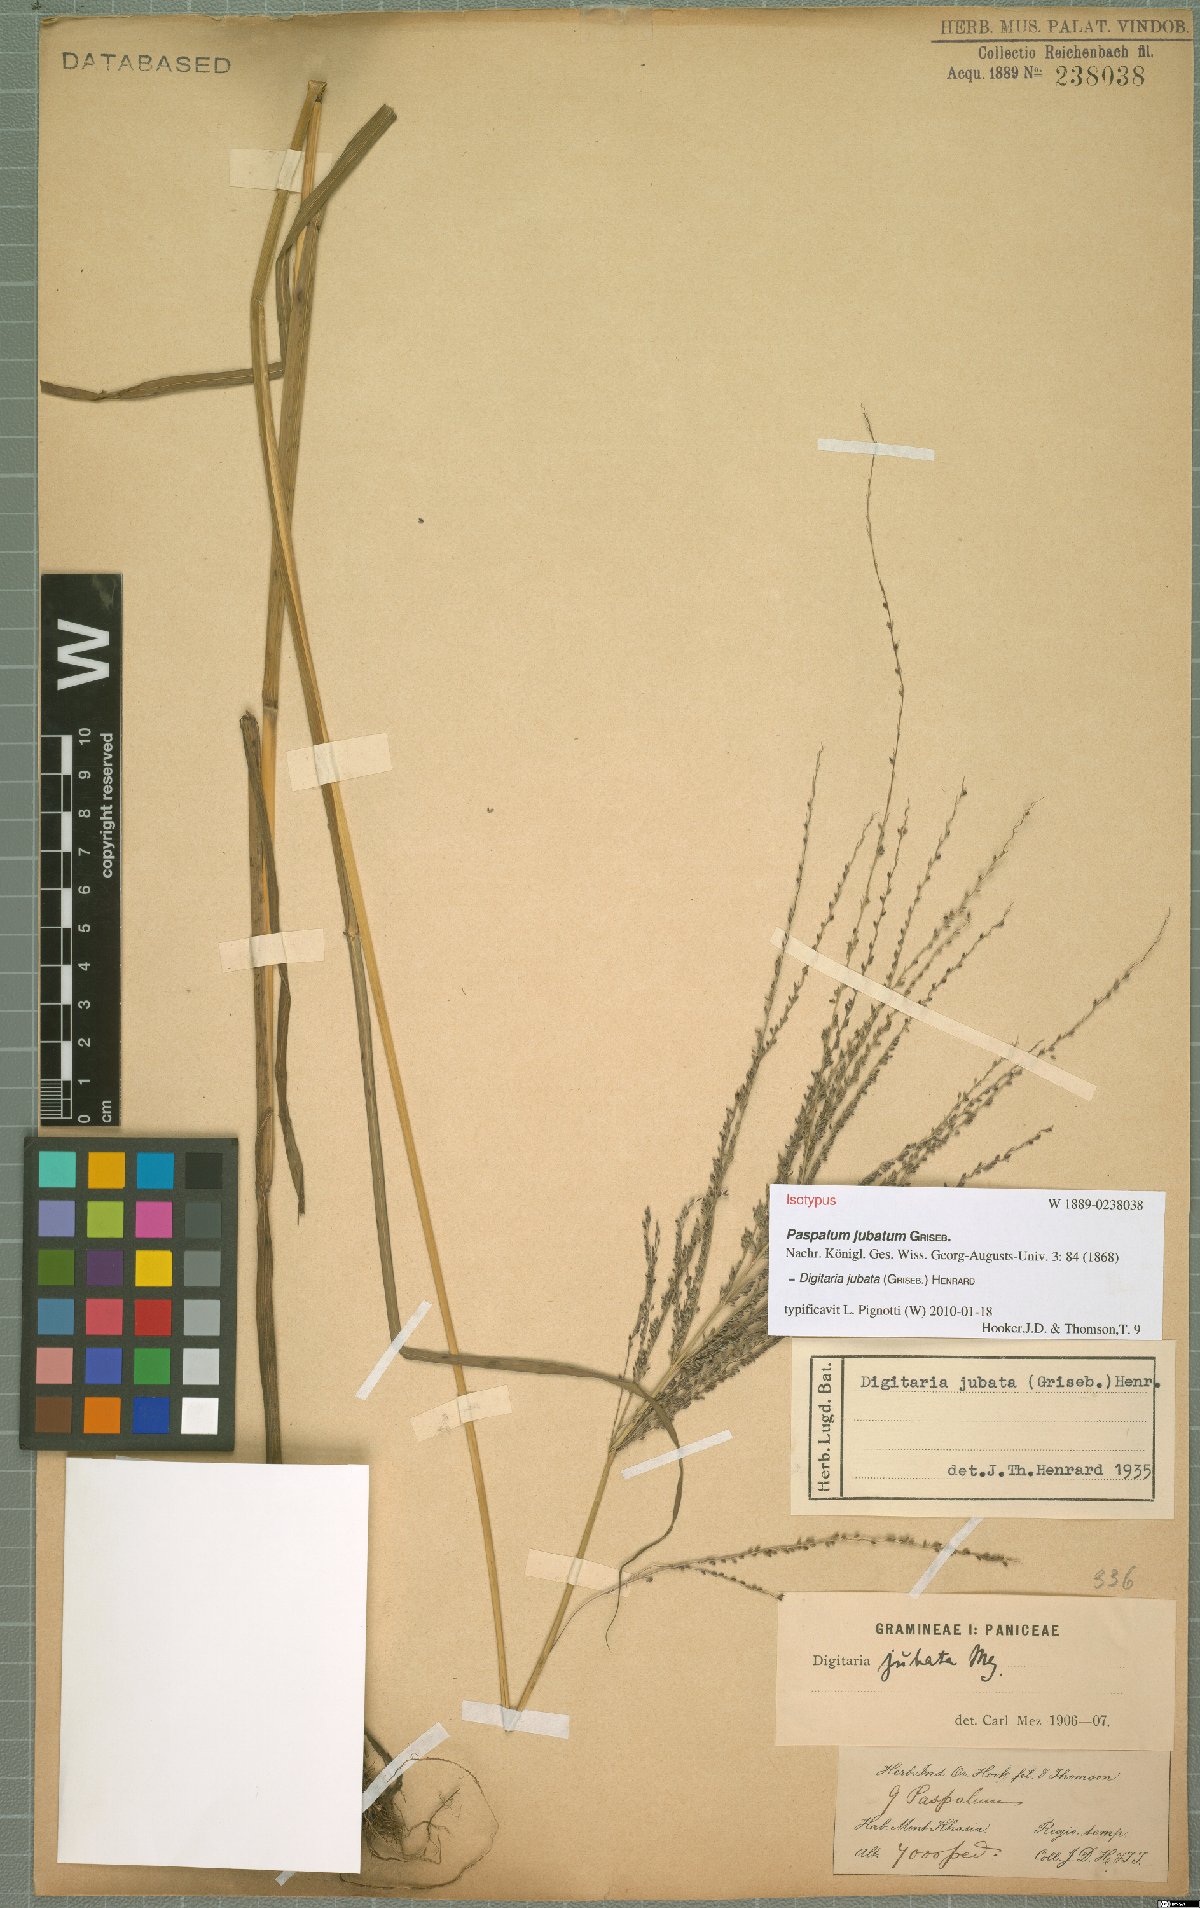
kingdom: Plantae
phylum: Tracheophyta
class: Liliopsida
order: Poales
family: Poaceae
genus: Digitaria
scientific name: Digitaria jubata
